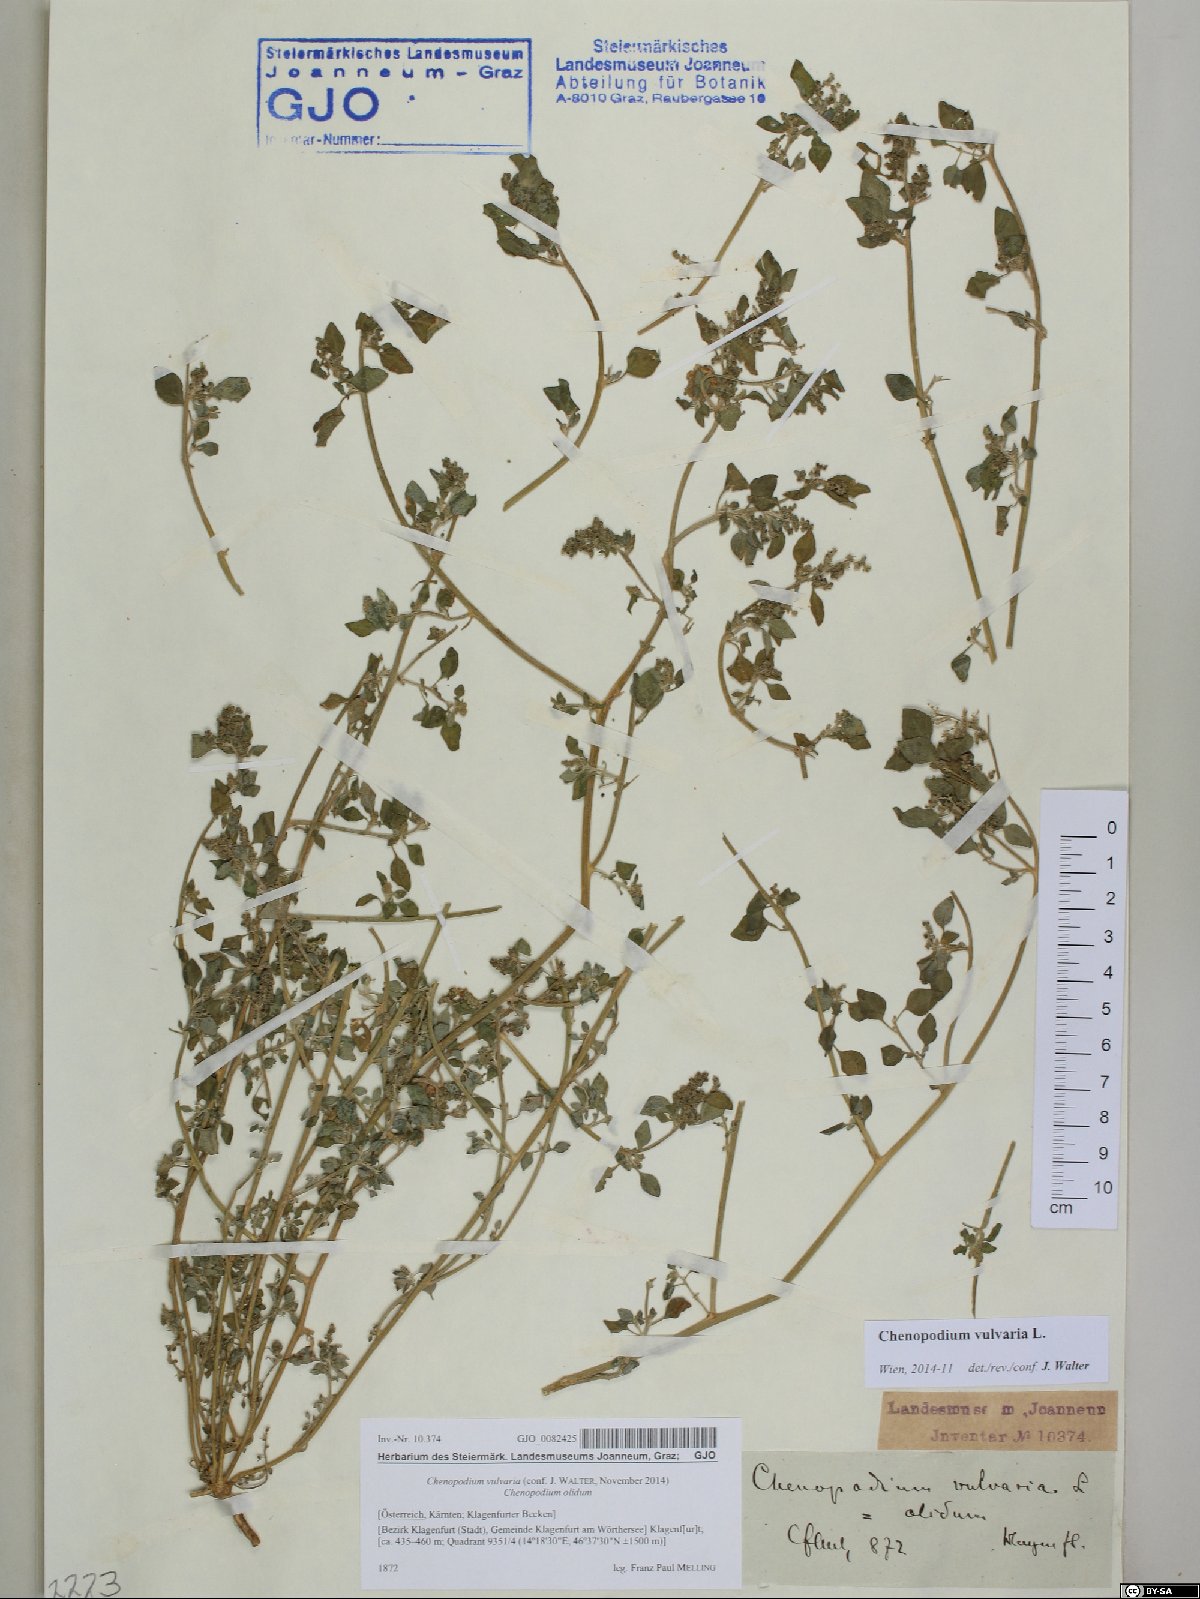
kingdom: Plantae
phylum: Tracheophyta
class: Magnoliopsida
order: Caryophyllales
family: Amaranthaceae
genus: Chenopodium
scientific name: Chenopodium vulvaria
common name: Stinking goosefoot
